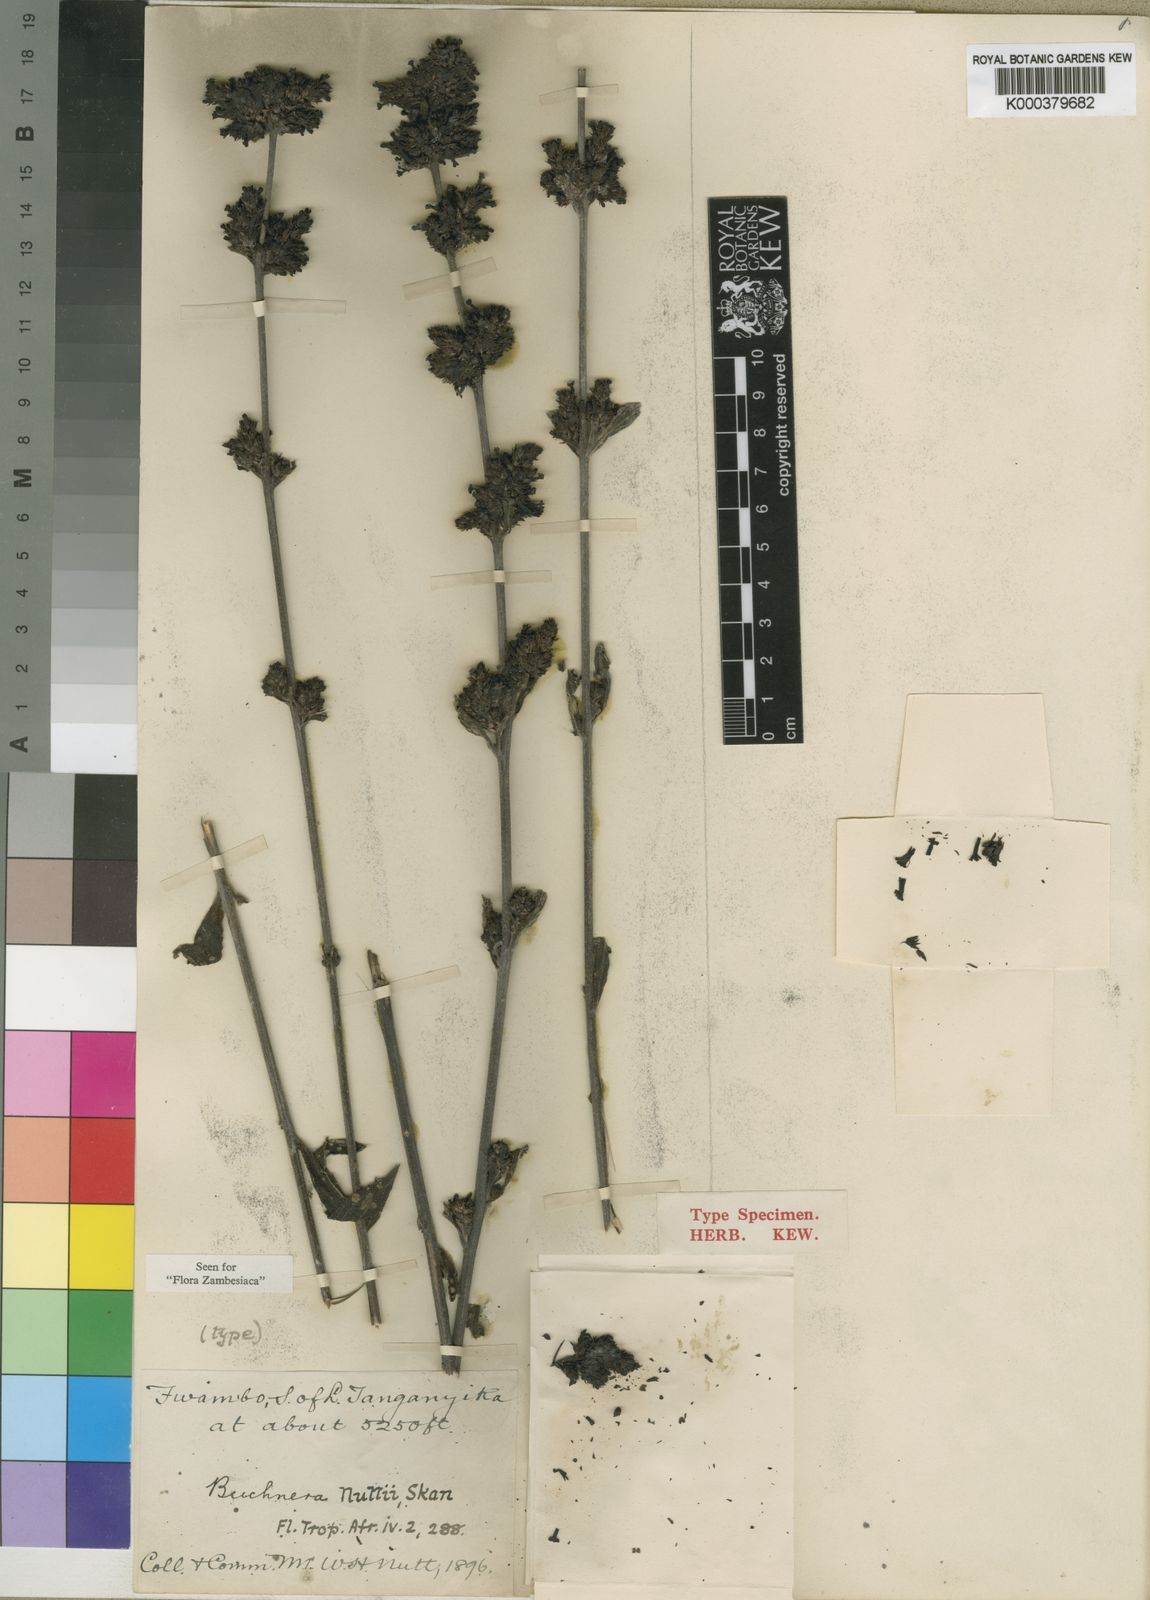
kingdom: Plantae
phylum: Tracheophyta
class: Magnoliopsida
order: Lamiales
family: Orobanchaceae
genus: Buchnera
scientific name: Buchnera nuttii
